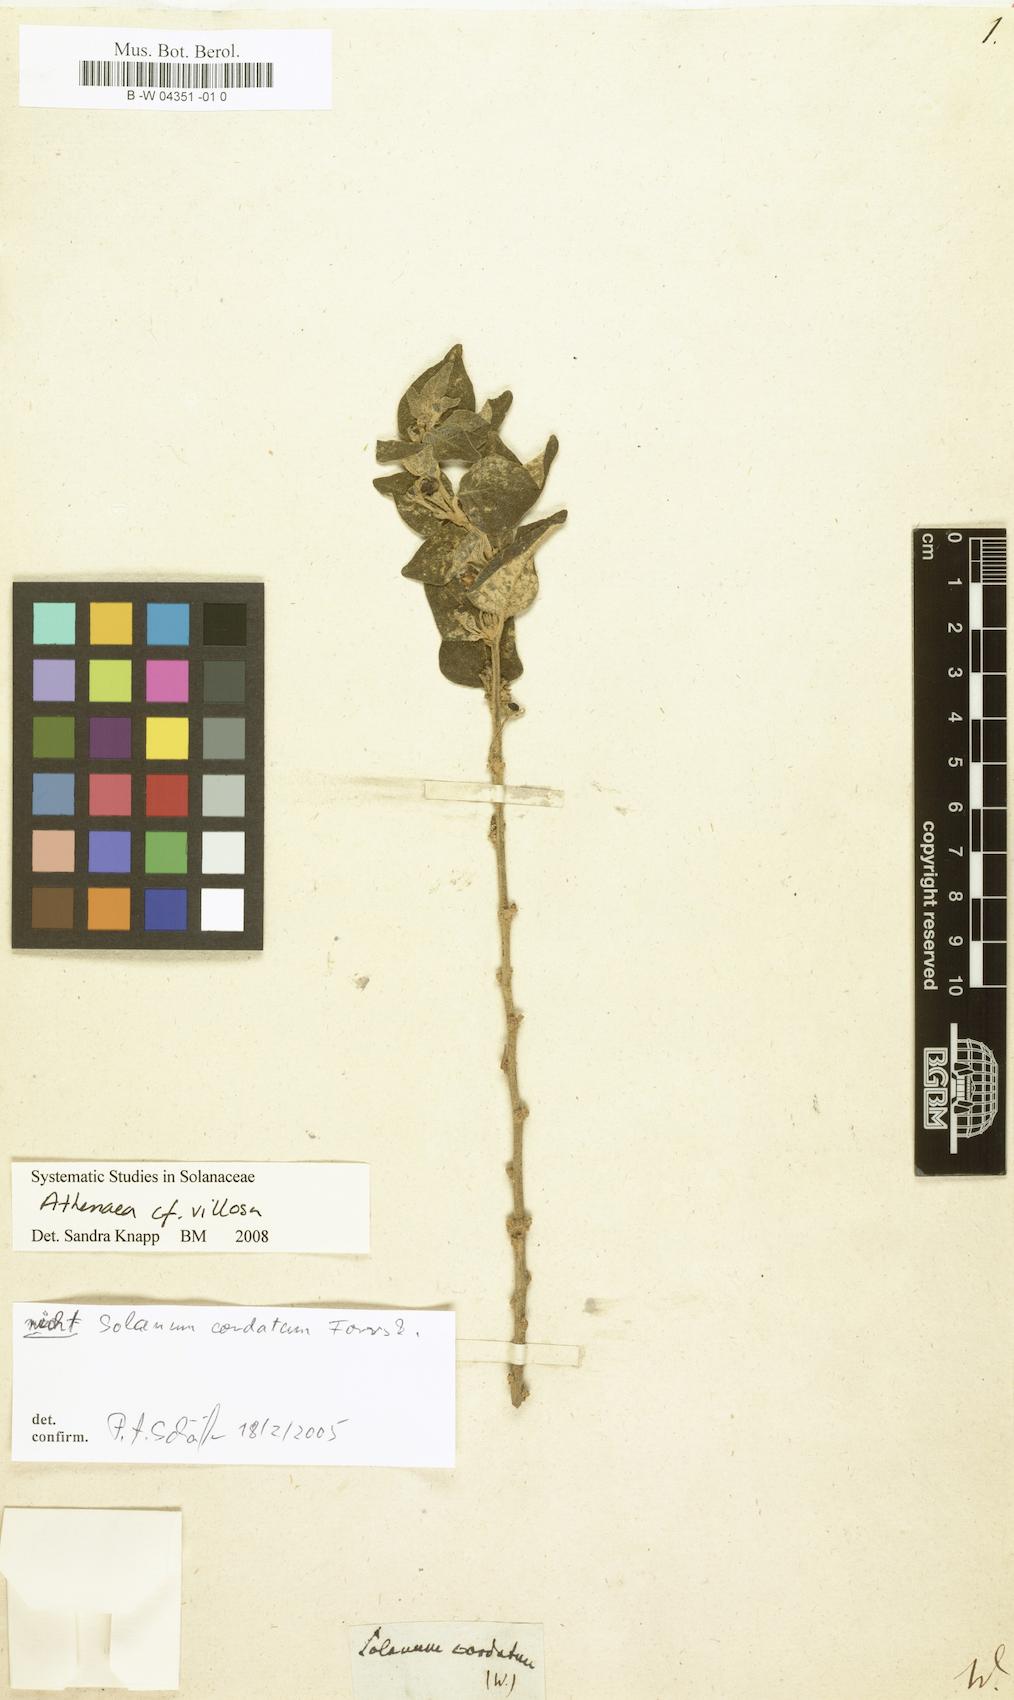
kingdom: Plantae
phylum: Tracheophyta
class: Magnoliopsida
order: Solanales
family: Solanaceae
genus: Solanum
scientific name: Solanum cordatum
